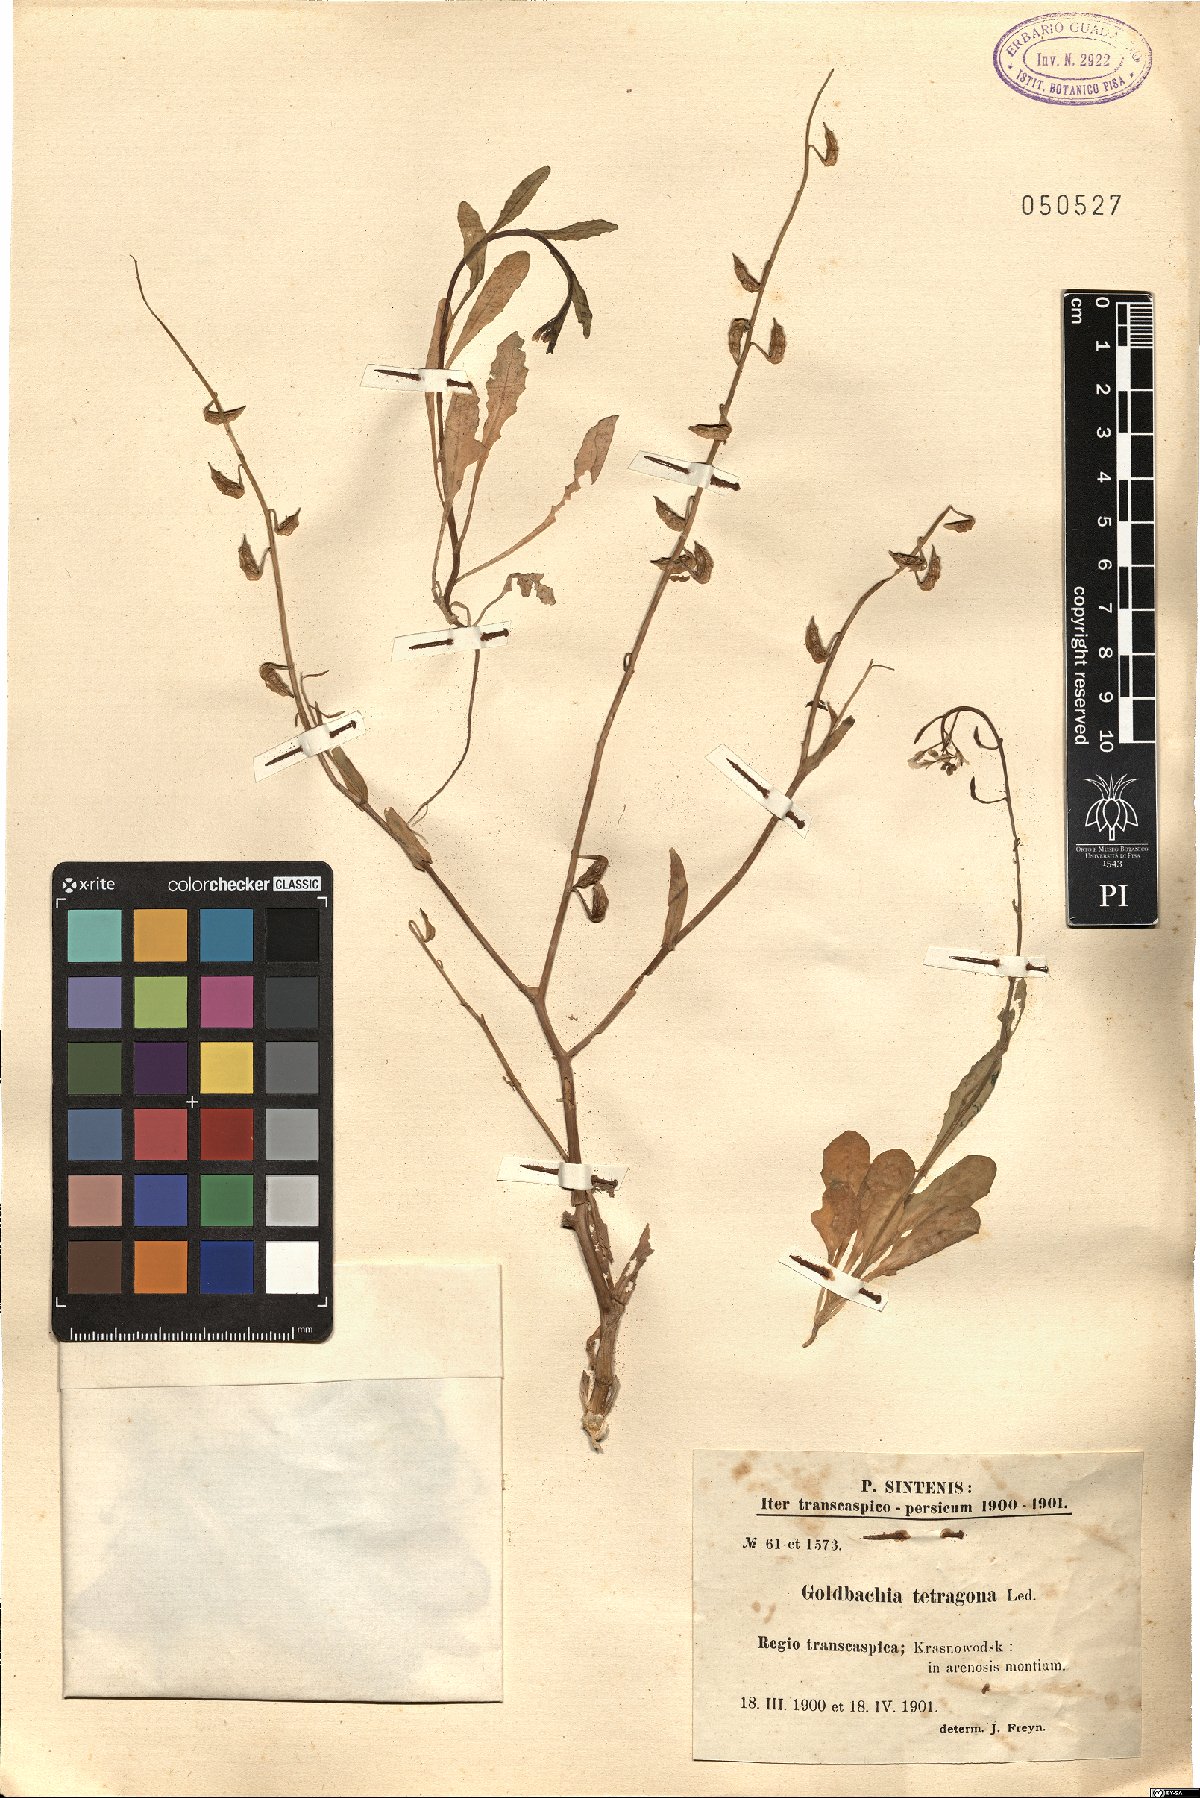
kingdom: Plantae
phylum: Tracheophyta
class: Magnoliopsida
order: Brassicales
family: Brassicaceae
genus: Goldbachia
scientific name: Goldbachia tetragona
